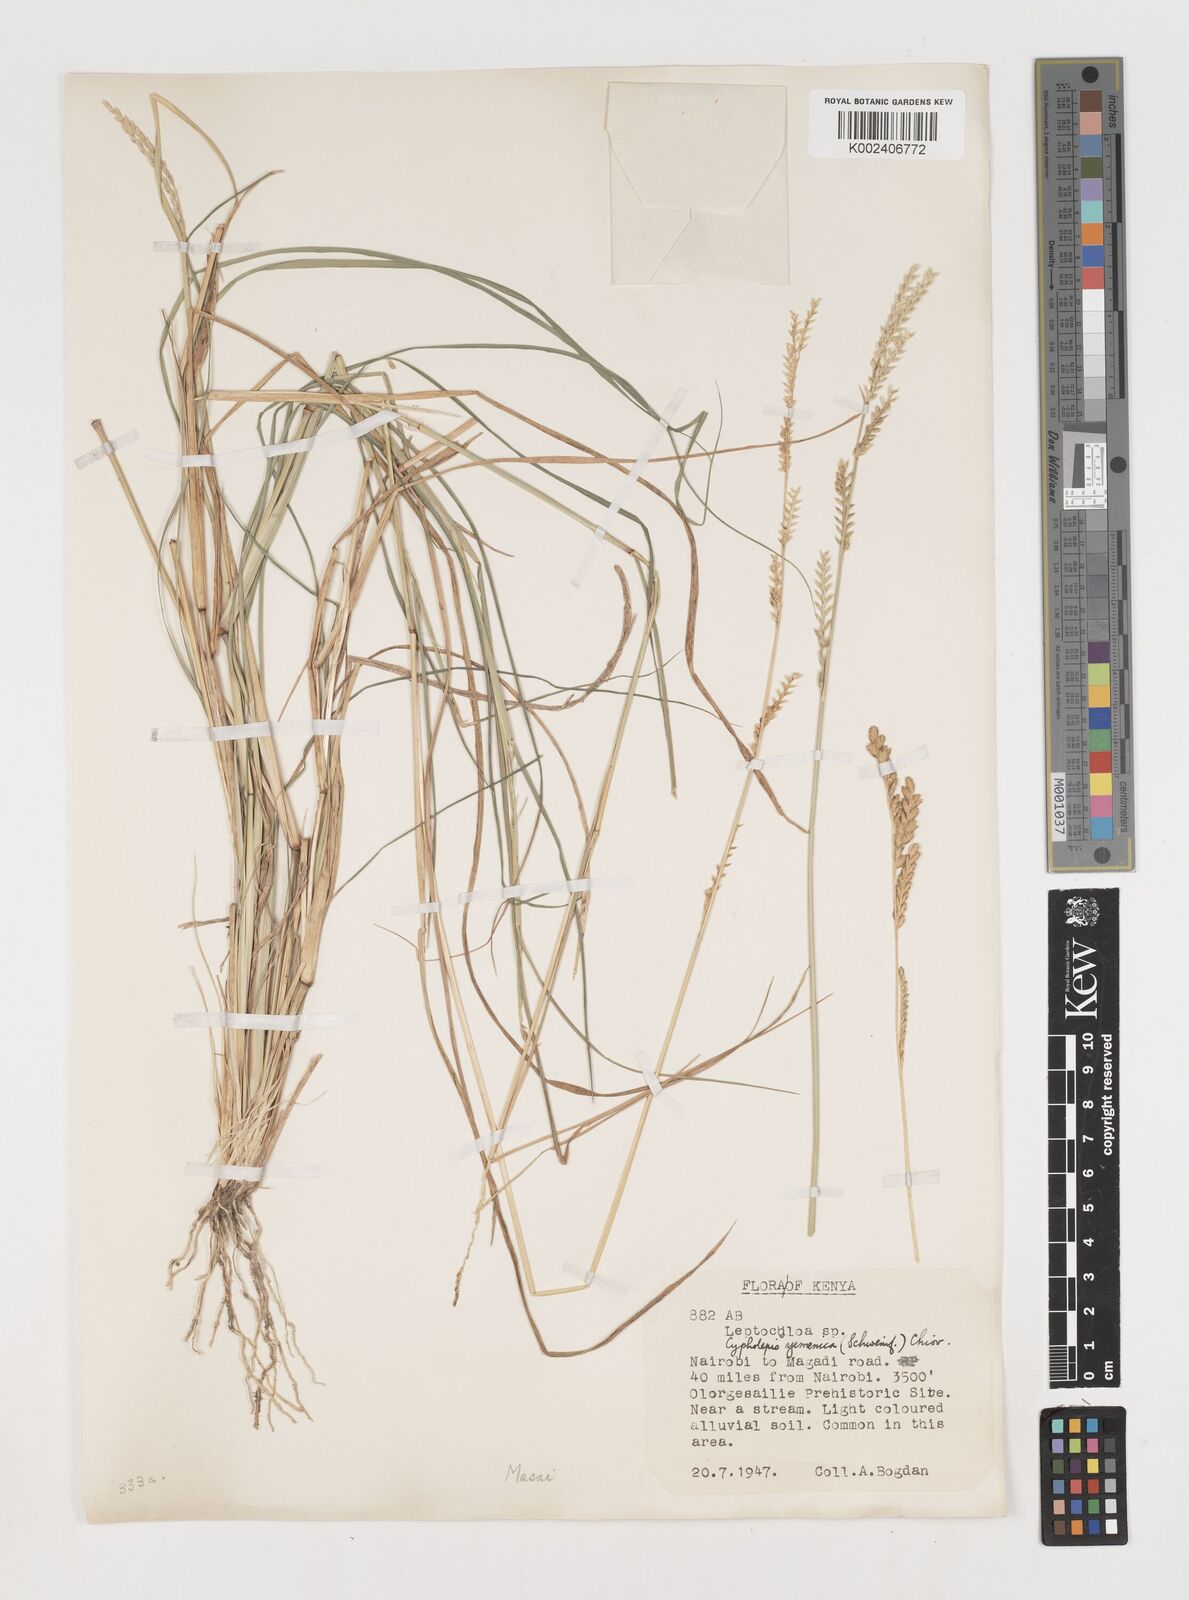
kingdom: Plantae
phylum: Tracheophyta
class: Liliopsida
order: Poales
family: Poaceae
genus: Disakisperma
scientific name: Disakisperma yemenicum
